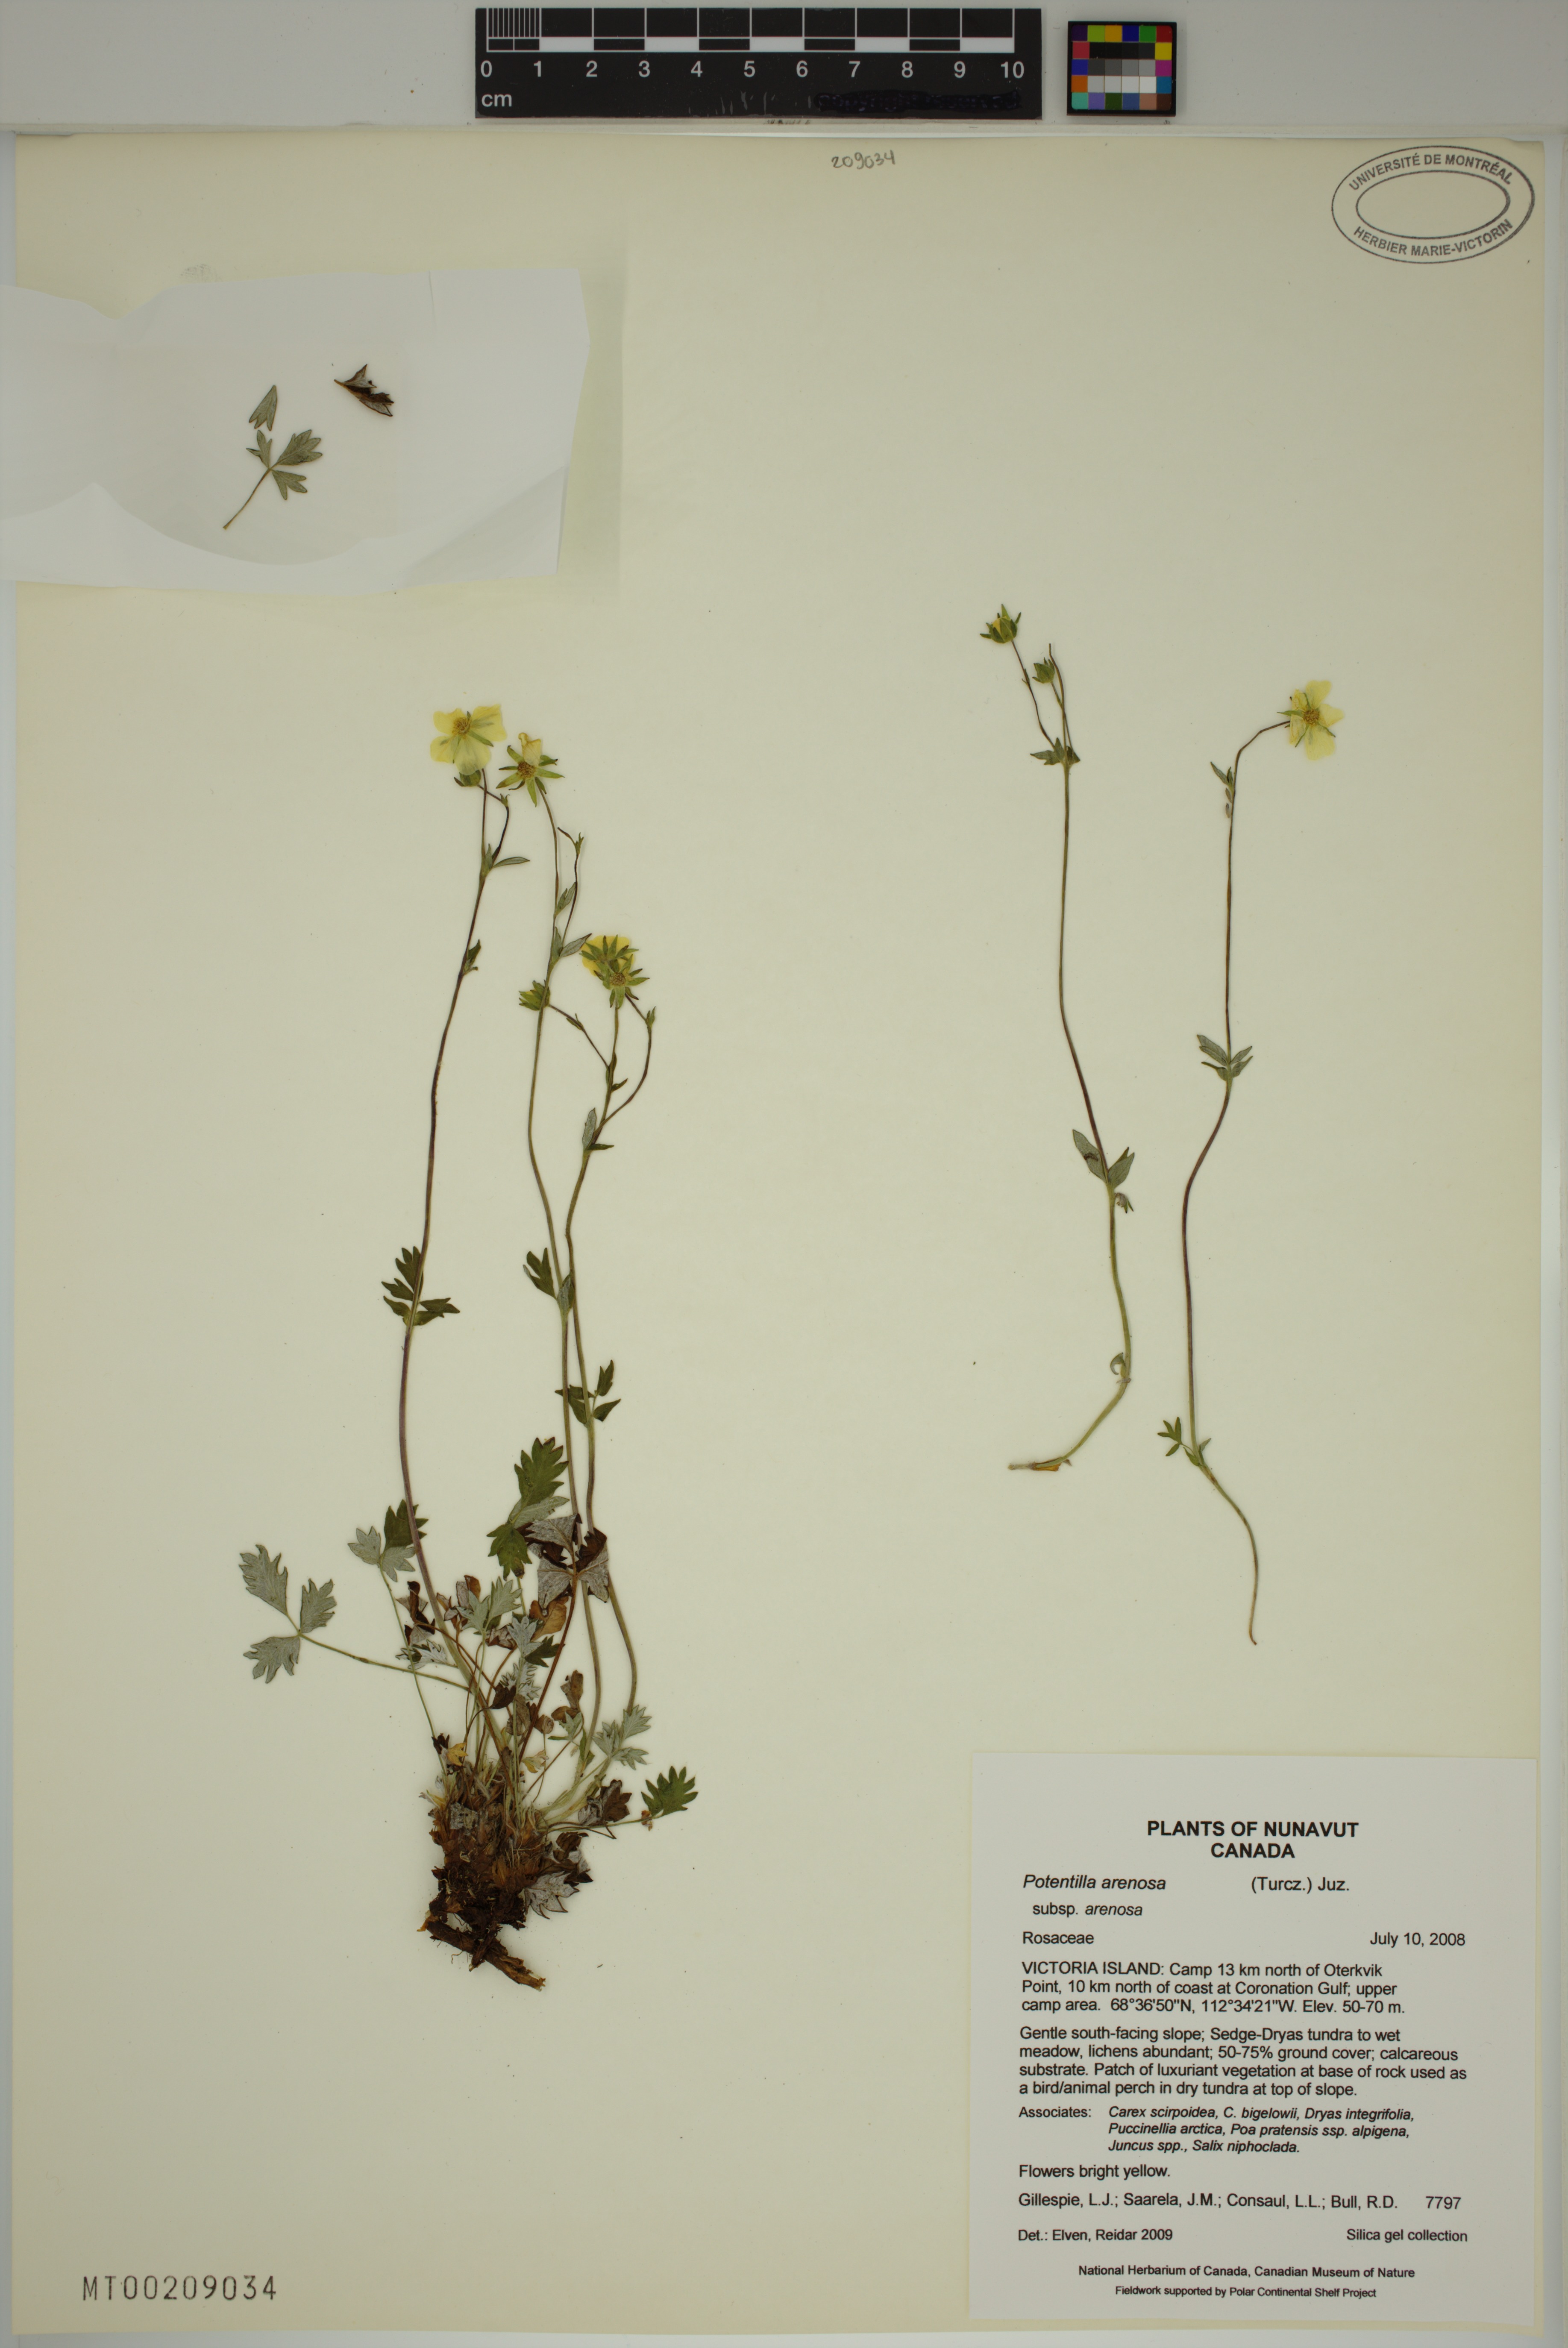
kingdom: Plantae
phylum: Tracheophyta
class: Magnoliopsida
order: Rosales
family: Rosaceae
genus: Potentilla
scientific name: Potentilla arenosa
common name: Bluff cinquefoil
